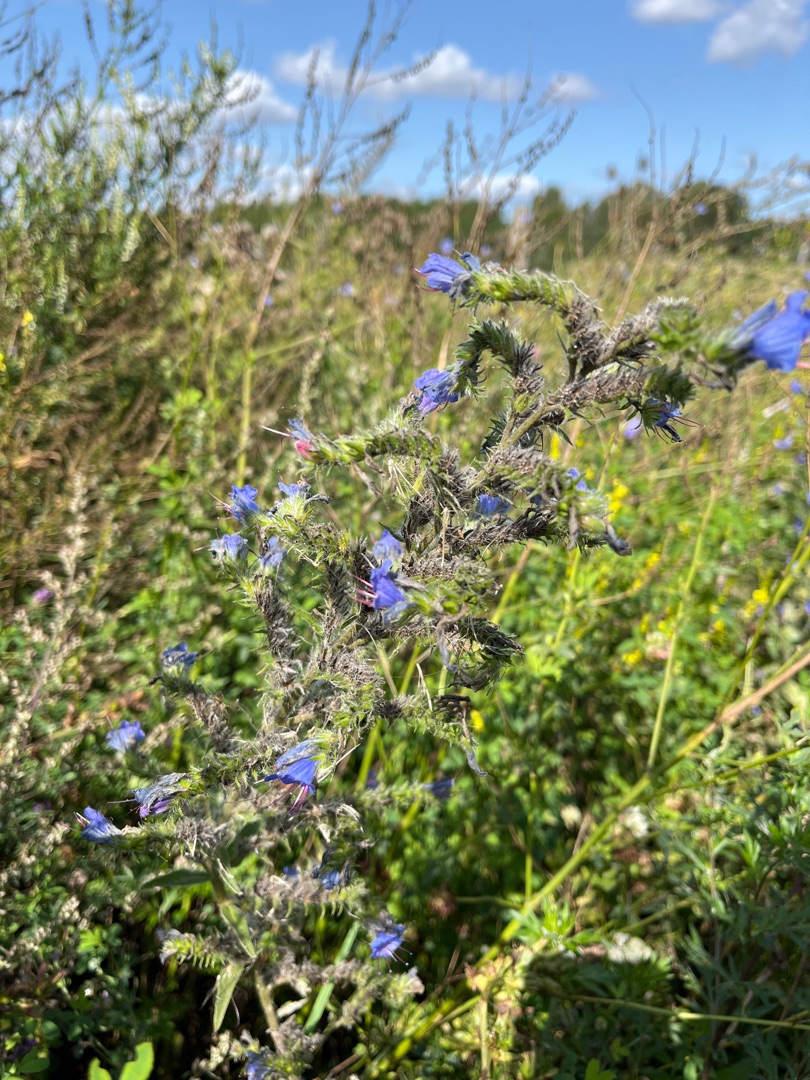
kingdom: Plantae
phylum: Tracheophyta
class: Magnoliopsida
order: Boraginales
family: Boraginaceae
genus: Echium
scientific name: Echium vulgare
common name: Slangehoved
